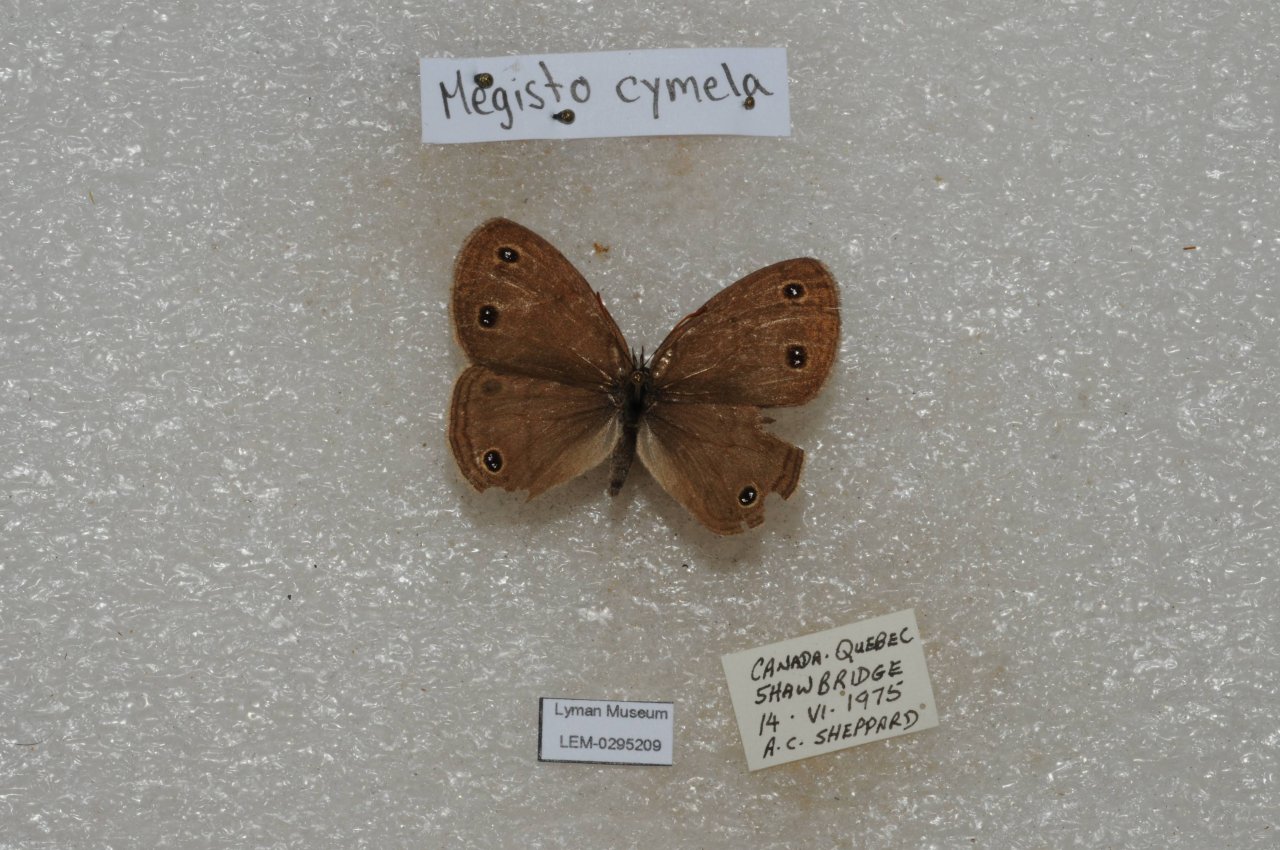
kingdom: Animalia
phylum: Arthropoda
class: Insecta
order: Lepidoptera
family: Nymphalidae
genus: Euptychia
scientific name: Euptychia cymela
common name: Little Wood Satyr
